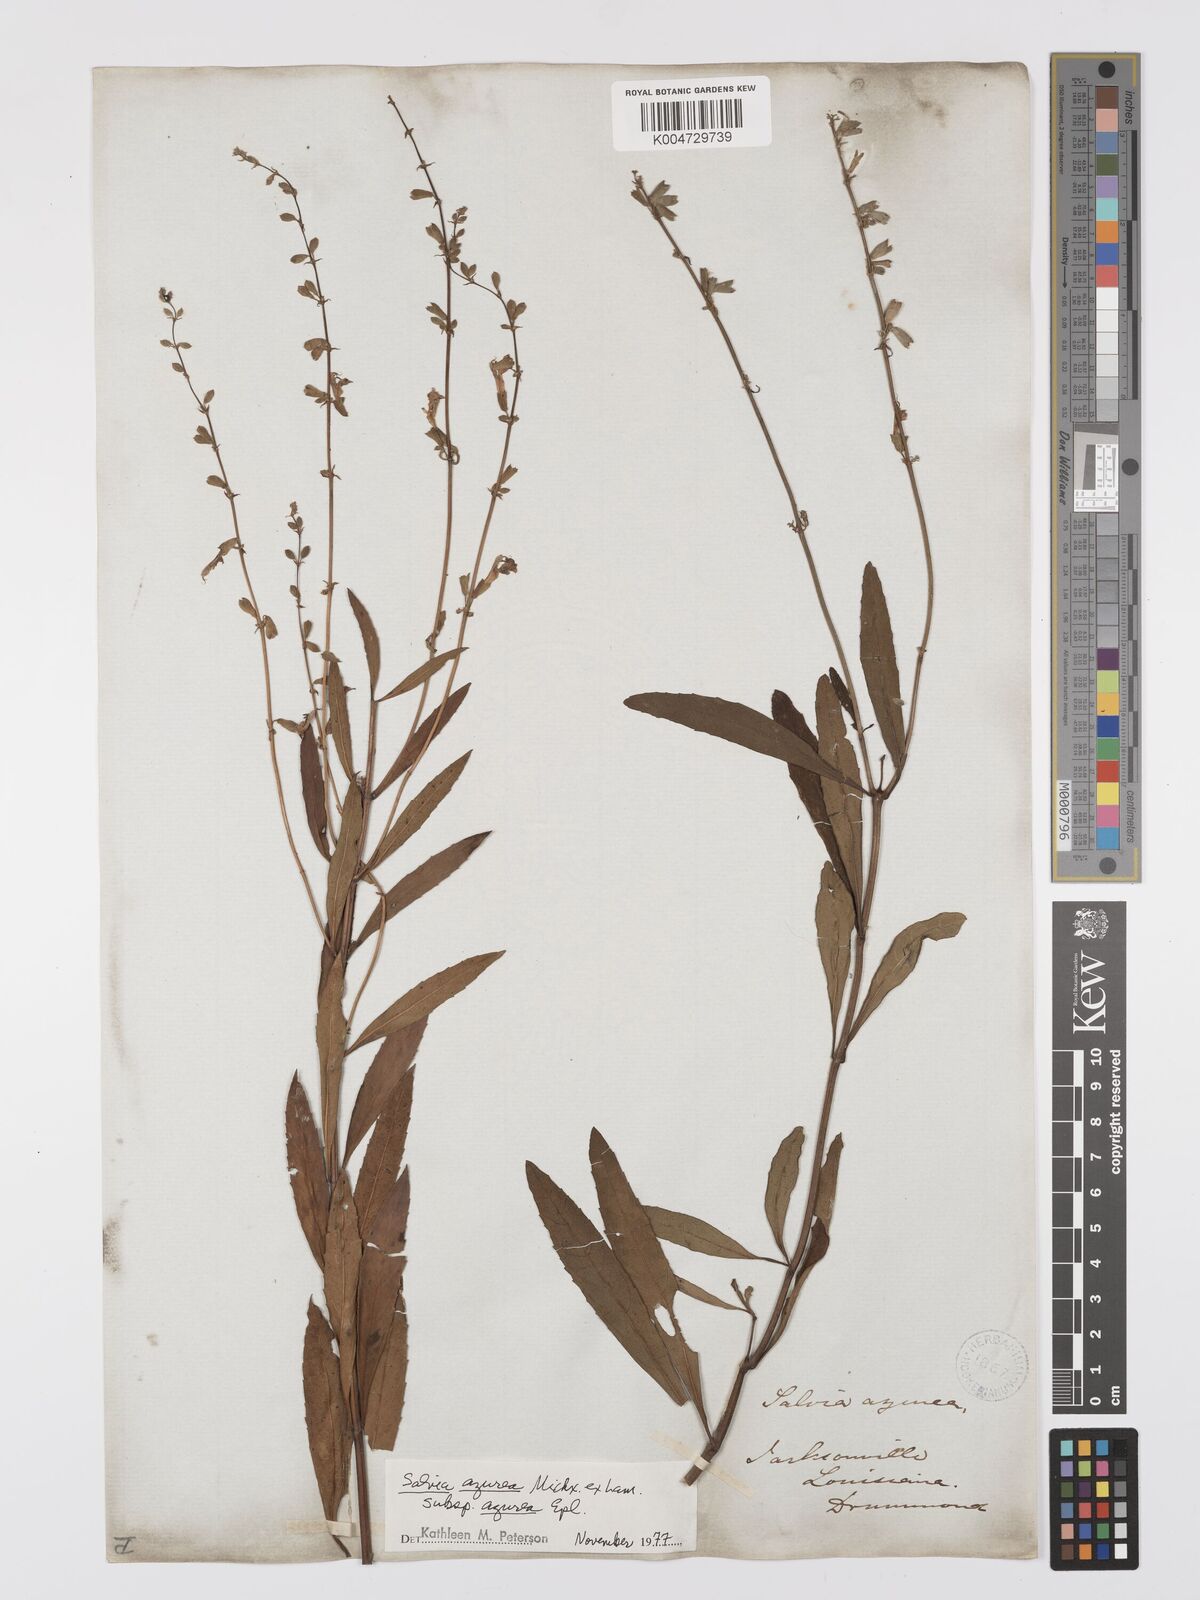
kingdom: Plantae
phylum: Tracheophyta
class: Magnoliopsida
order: Lamiales
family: Lamiaceae
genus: Salvia
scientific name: Salvia azurea
